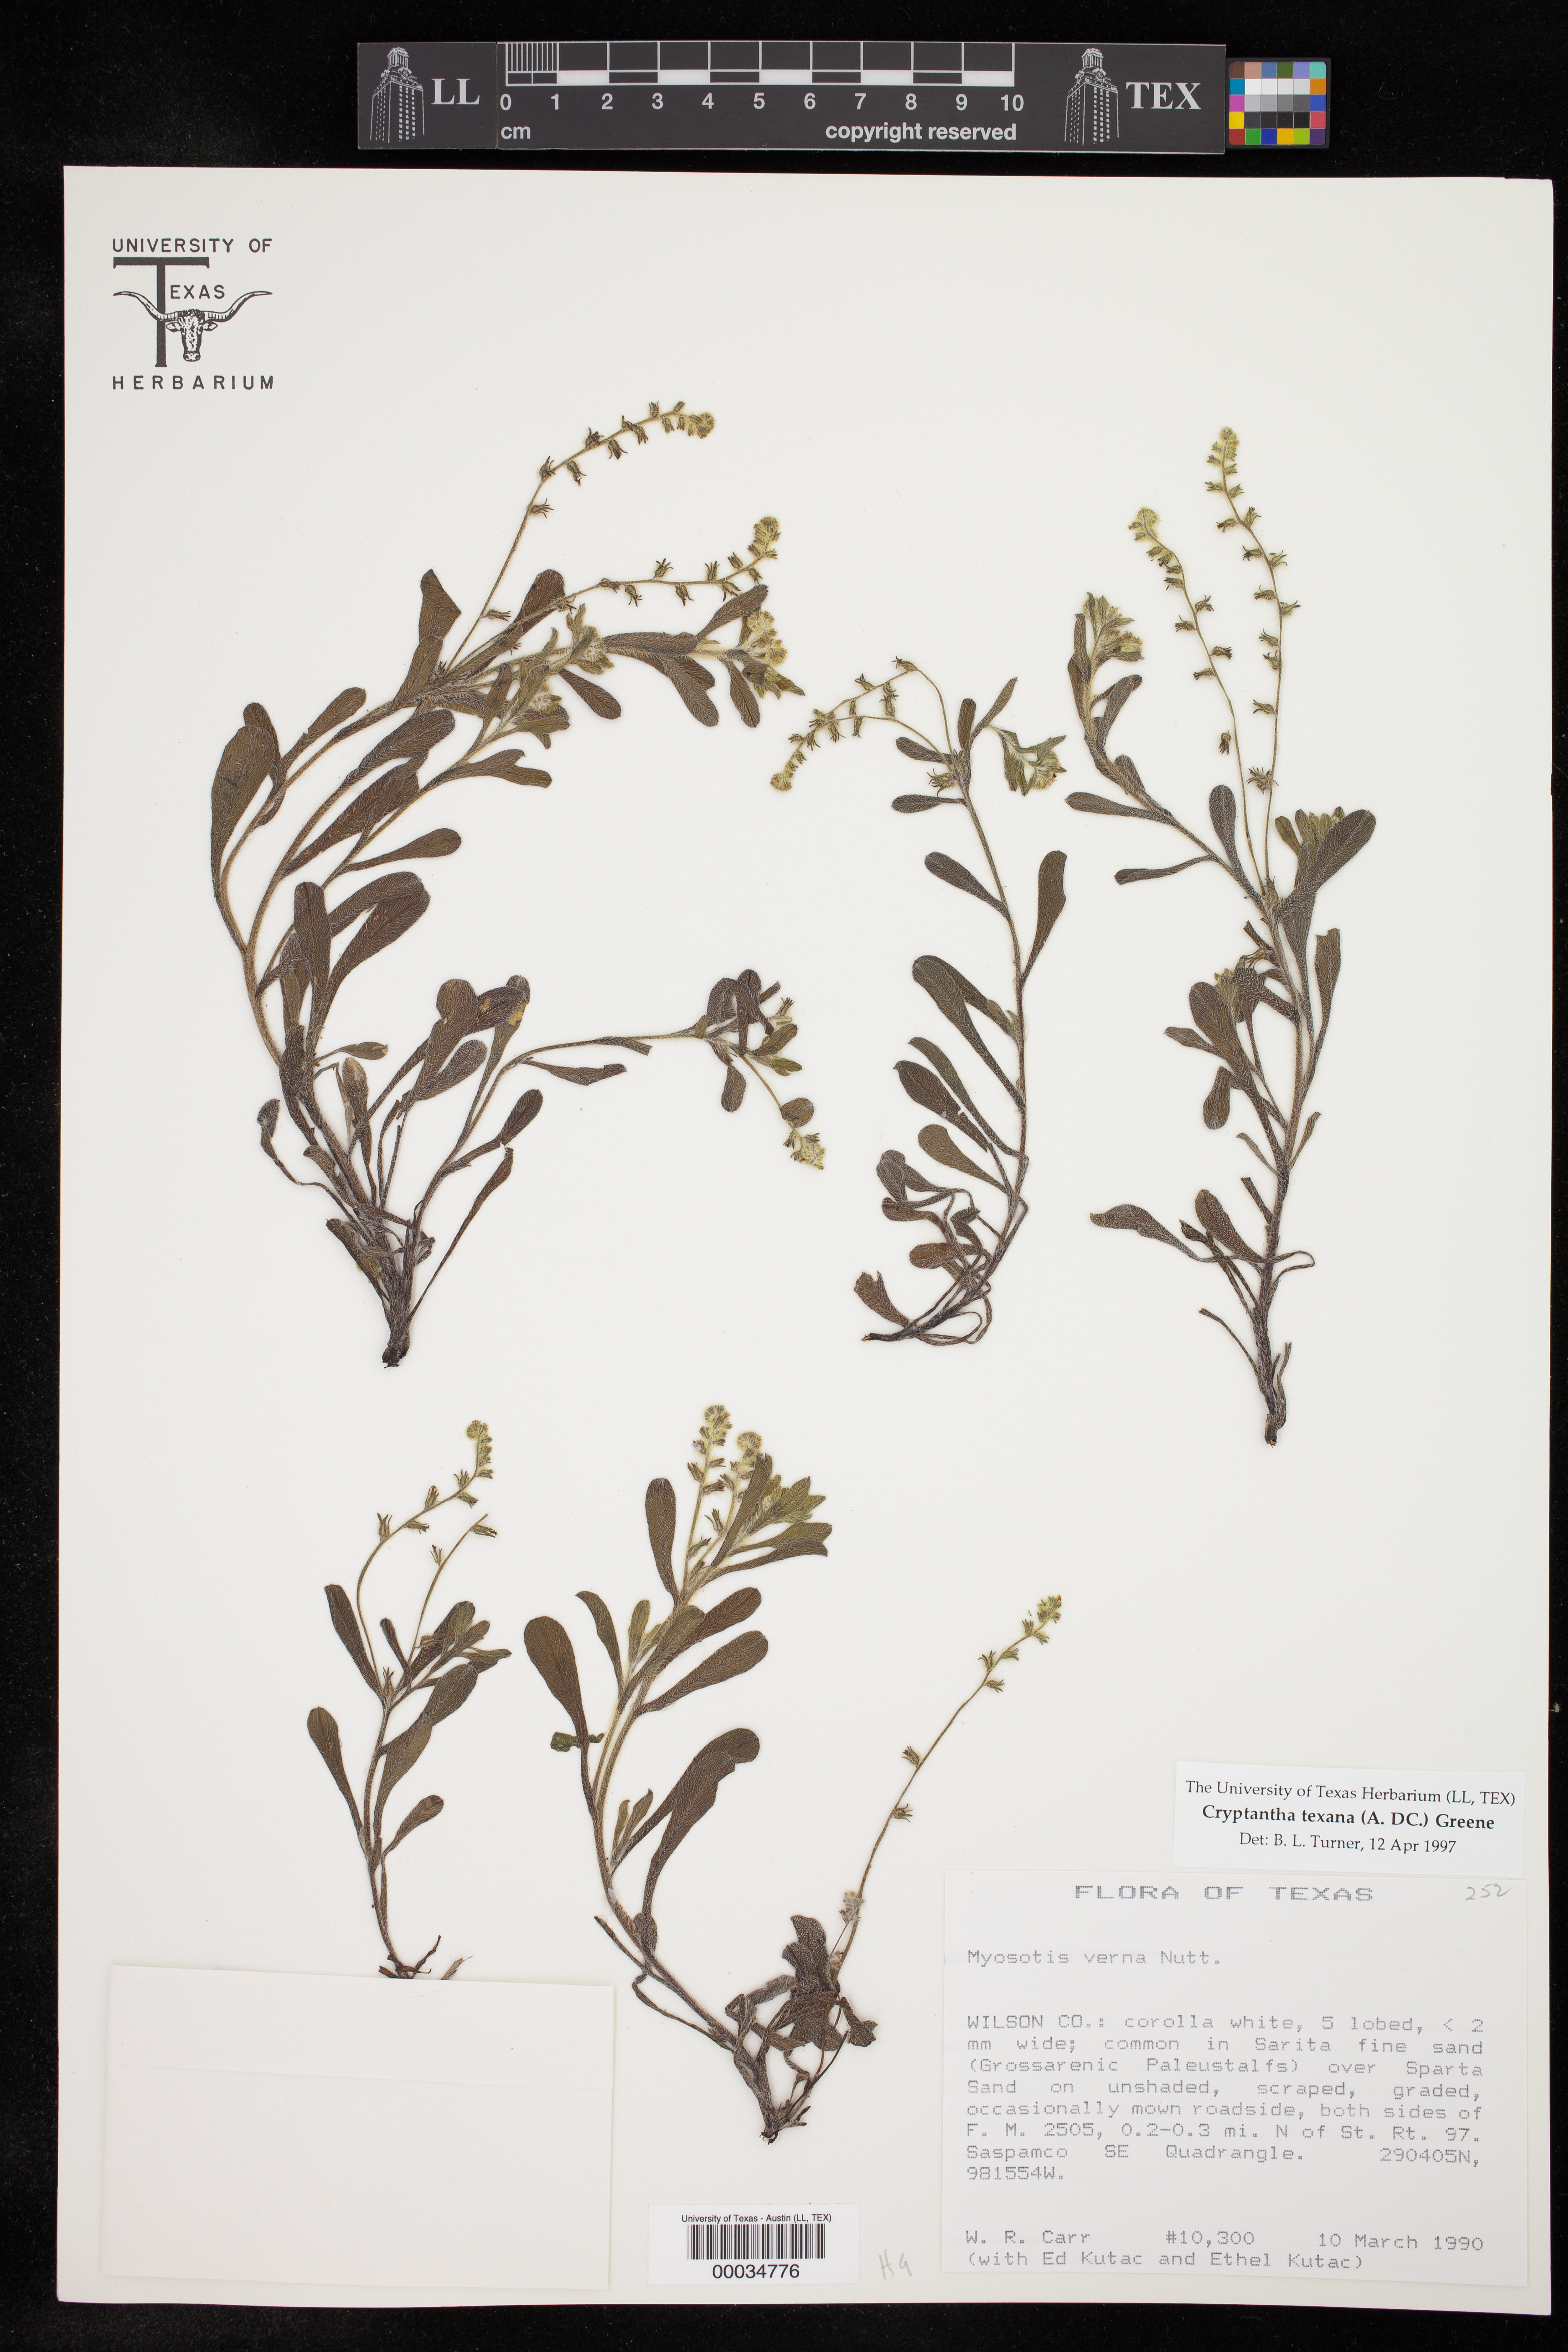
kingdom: Plantae
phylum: Tracheophyta
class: Magnoliopsida
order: Boraginales
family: Boraginaceae
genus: Cryptantha
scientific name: Cryptantha texana
